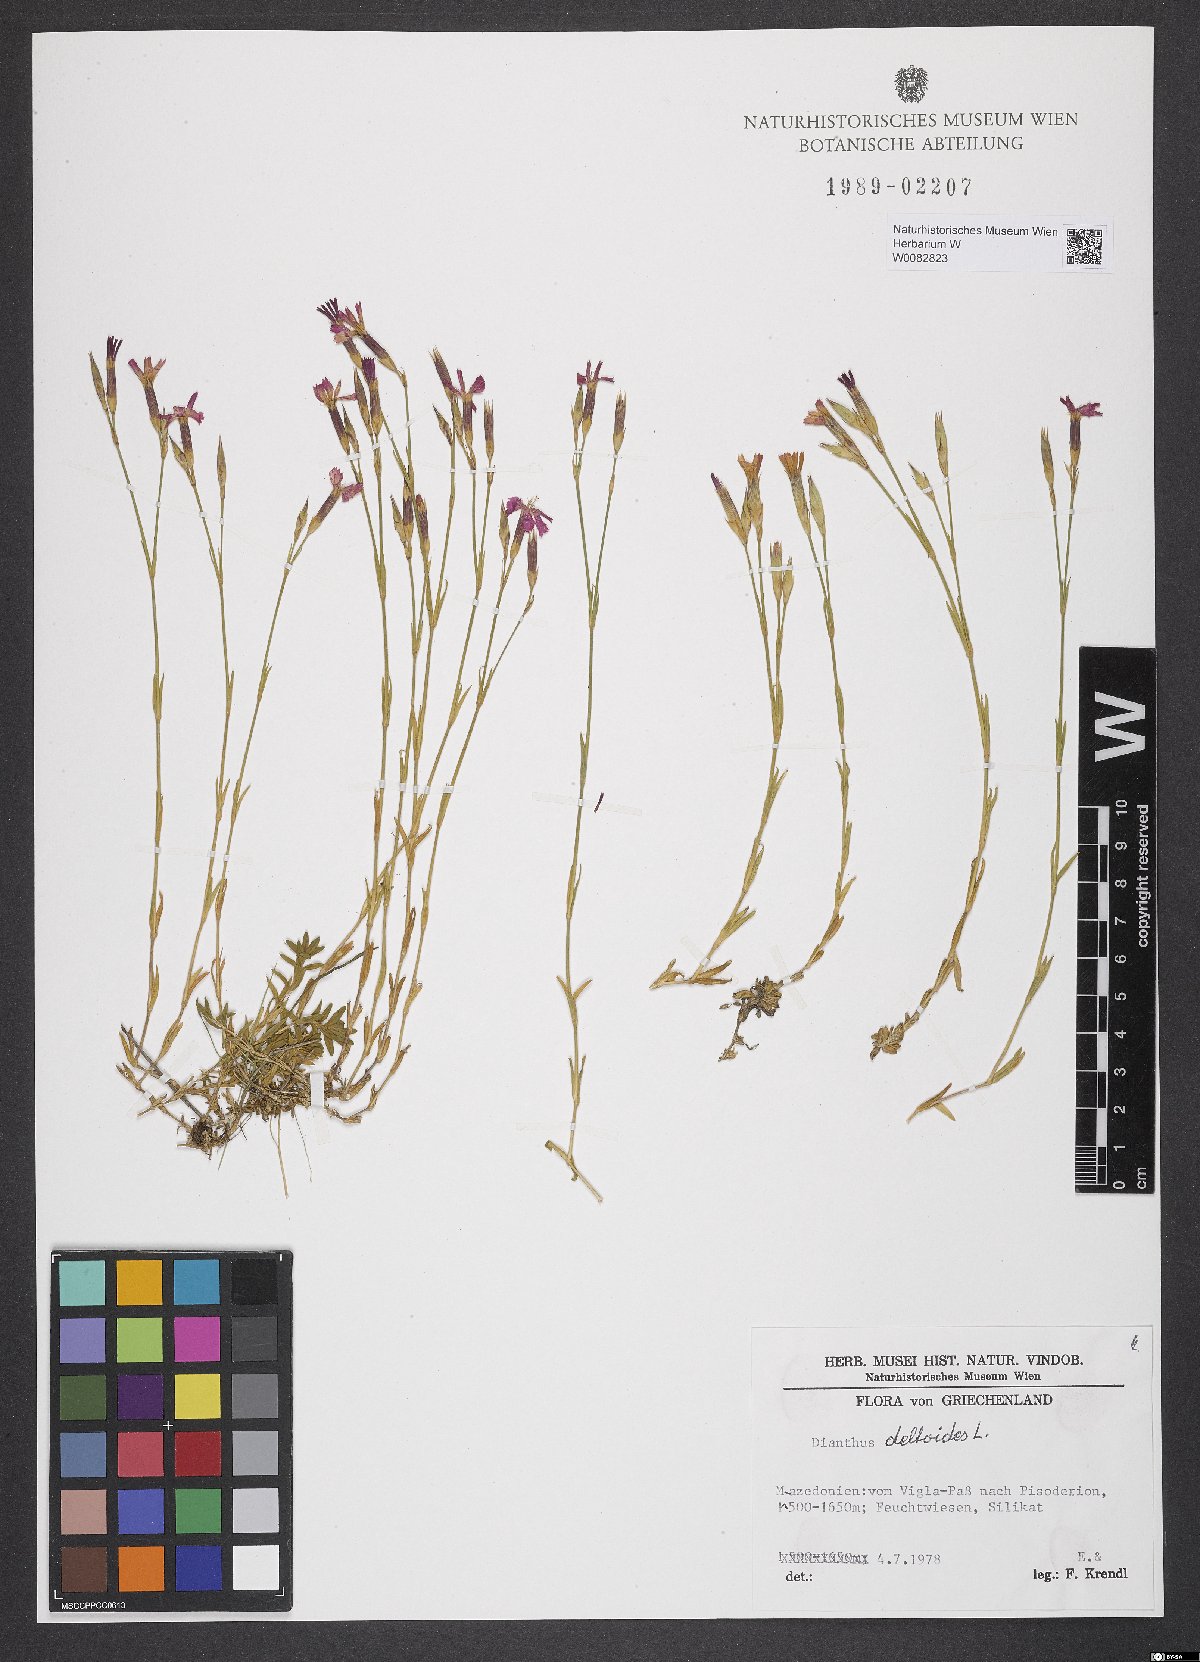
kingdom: Plantae
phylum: Tracheophyta
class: Magnoliopsida
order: Caryophyllales
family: Caryophyllaceae
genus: Dianthus
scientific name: Dianthus deltoides
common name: Maiden pink
